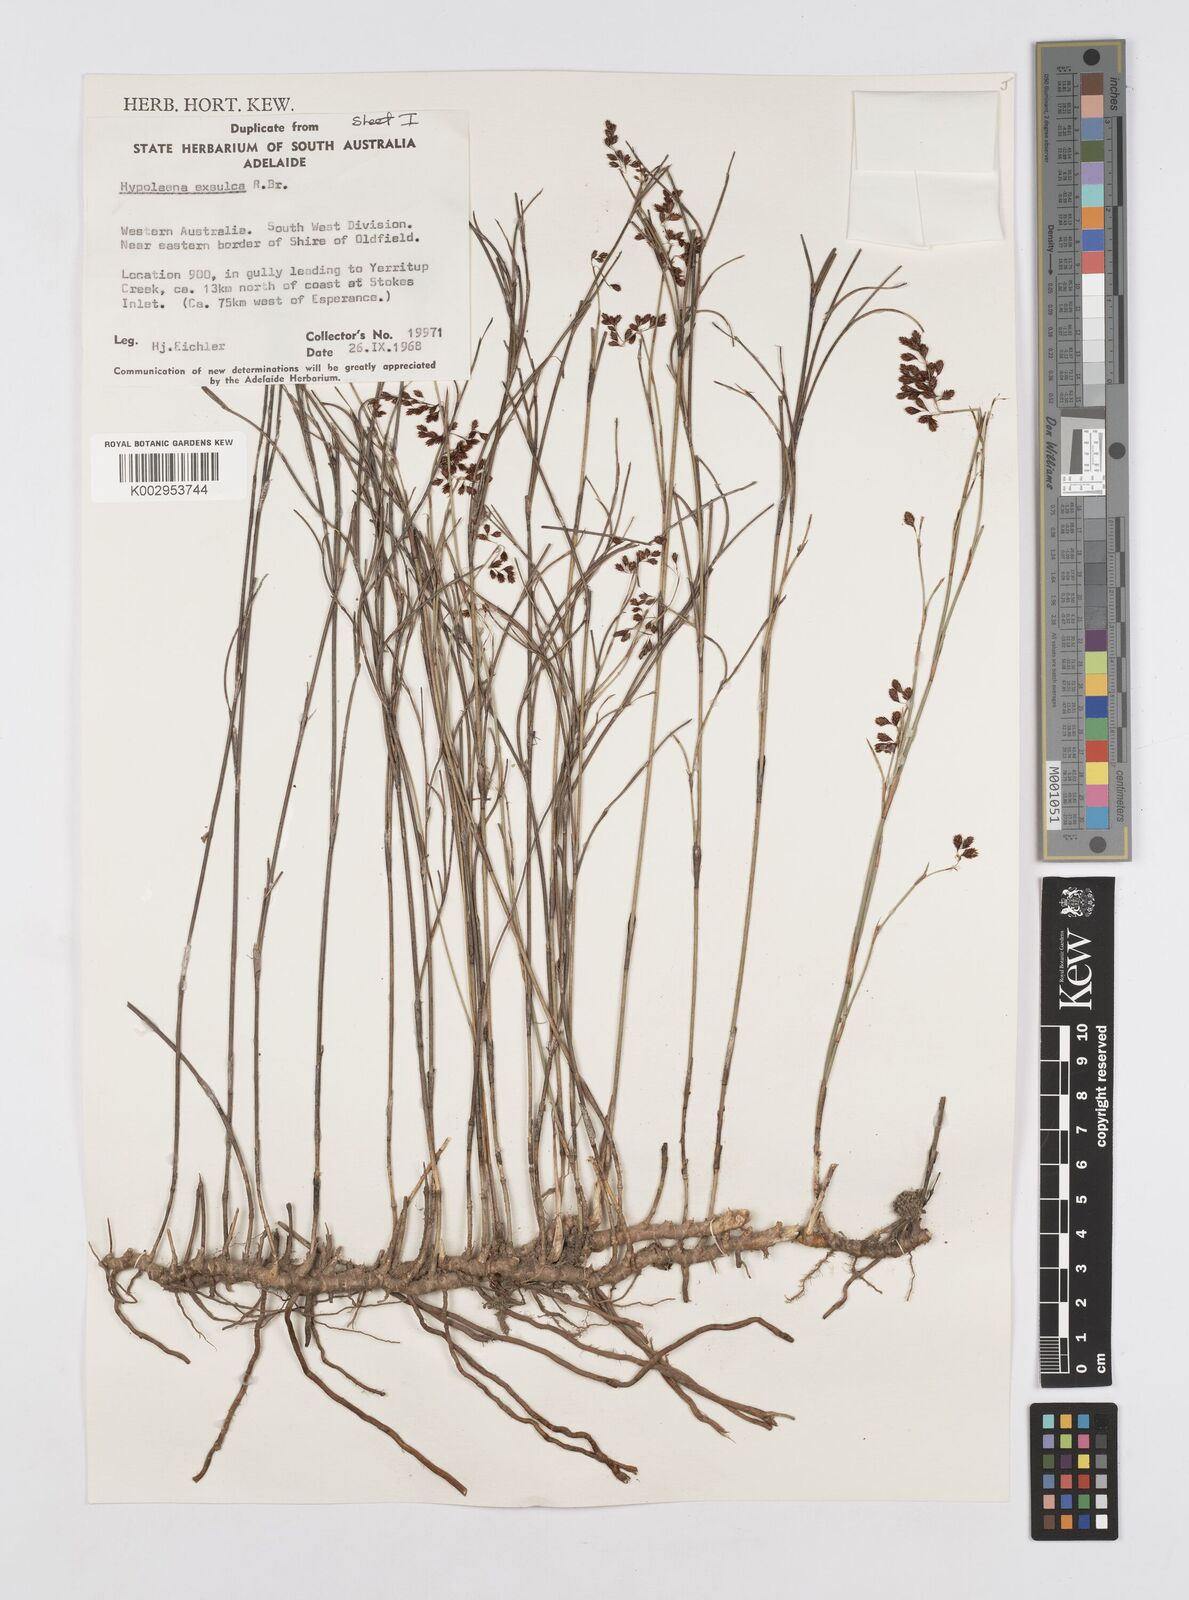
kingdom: Plantae
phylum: Tracheophyta
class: Liliopsida
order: Poales
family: Restionaceae
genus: Hypolaena
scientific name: Hypolaena exsulca
